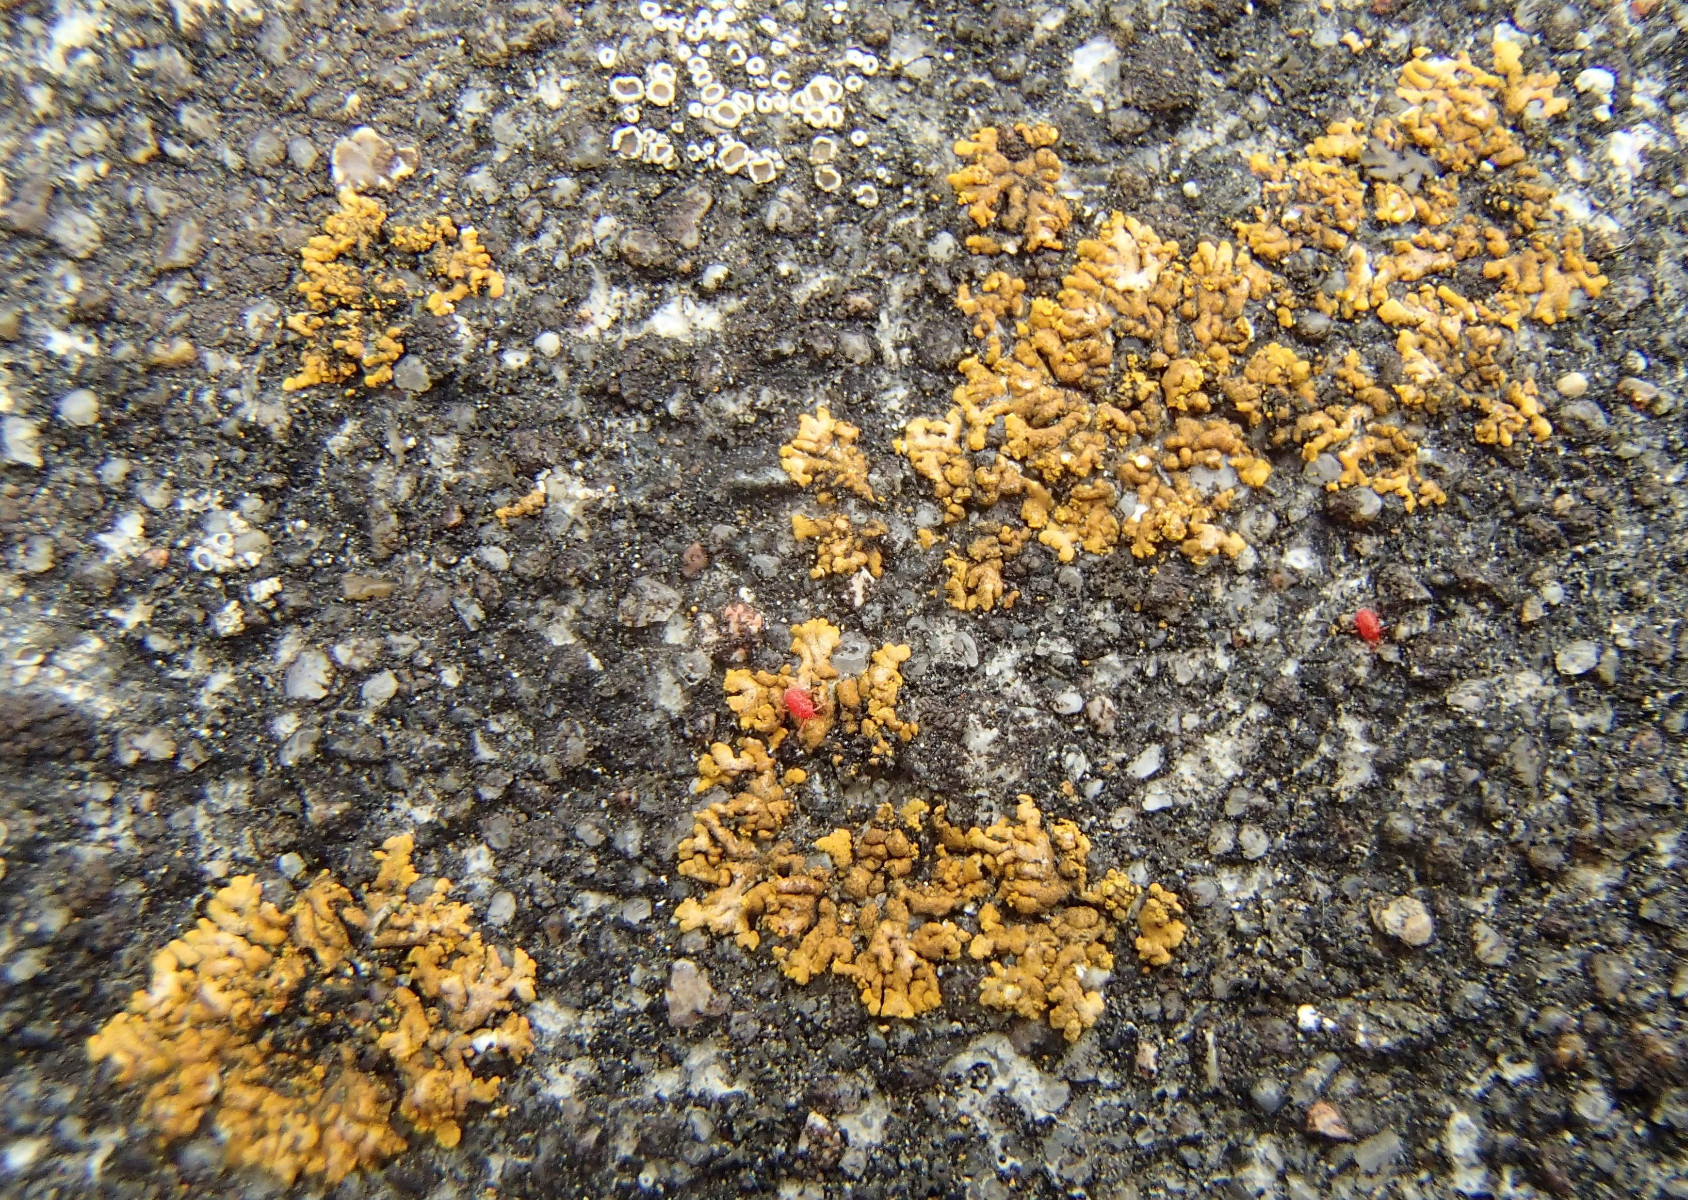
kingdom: Fungi
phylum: Ascomycota
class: Lecanoromycetes
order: Teloschistales
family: Teloschistaceae
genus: Calogaya
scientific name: Calogaya decipiens
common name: knudret orangelav
